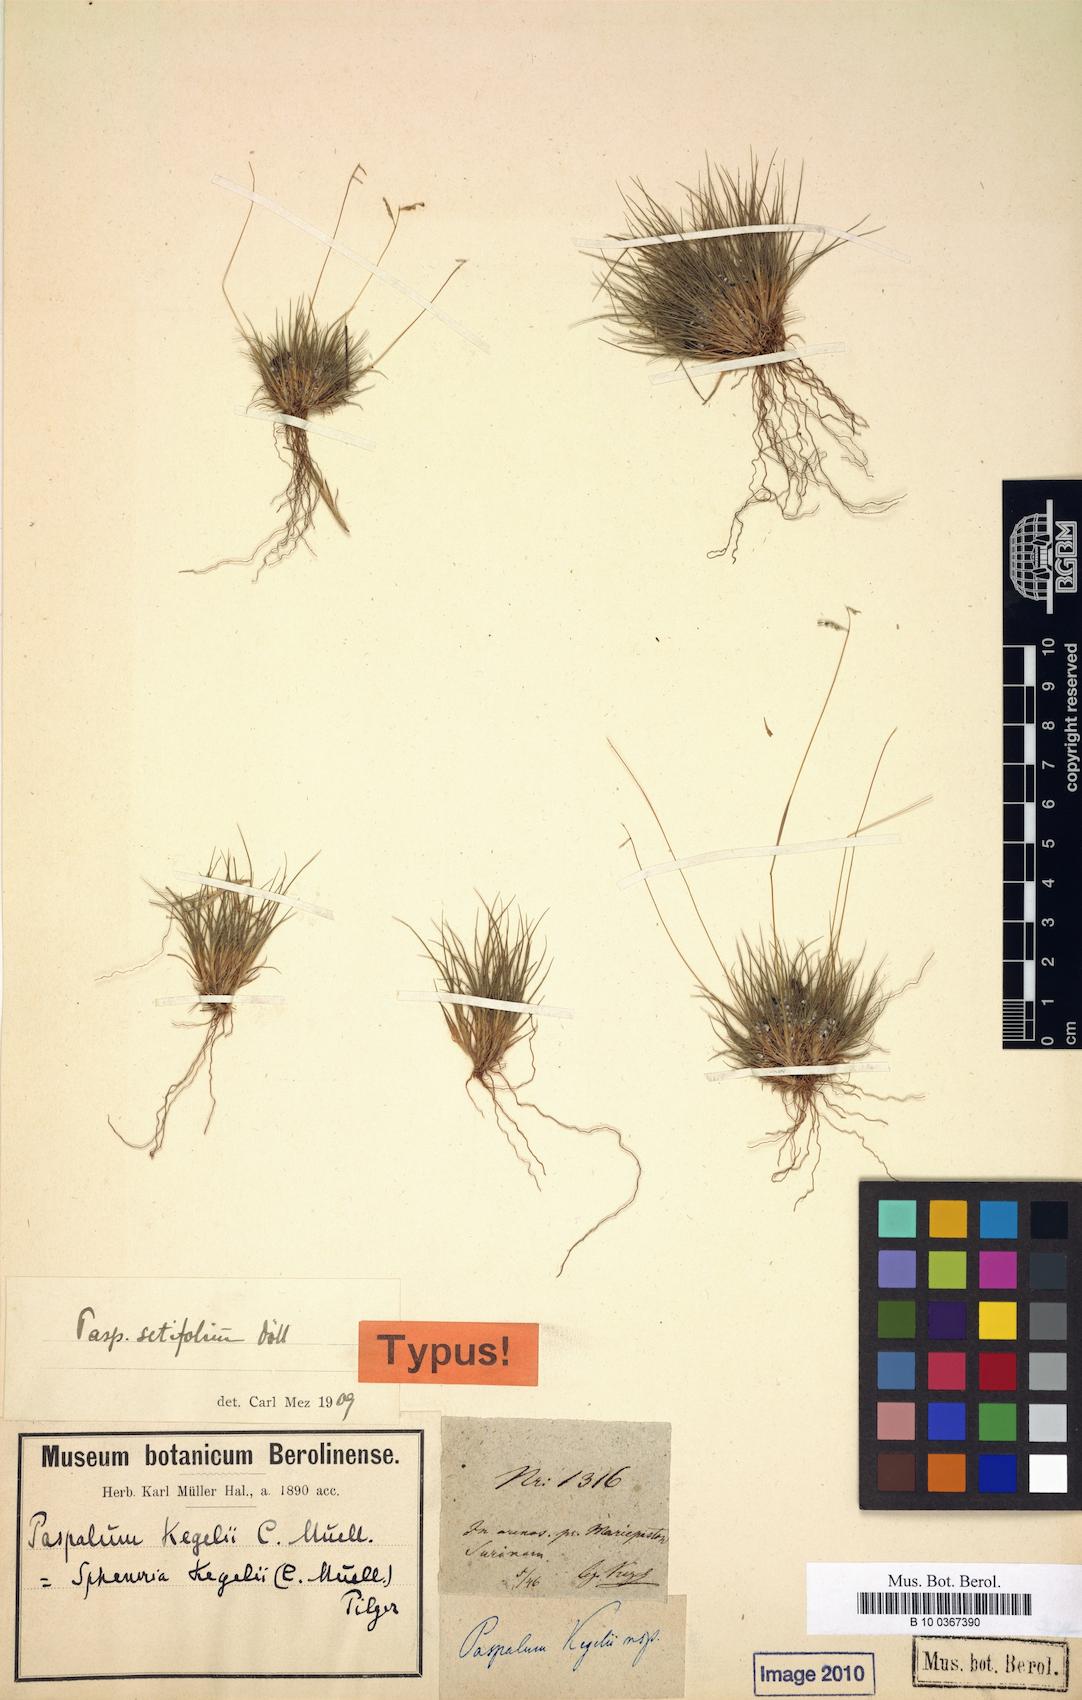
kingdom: Plantae
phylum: Tracheophyta
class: Liliopsida
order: Poales
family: Poaceae
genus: Spheneria
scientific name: Spheneria kegelii
